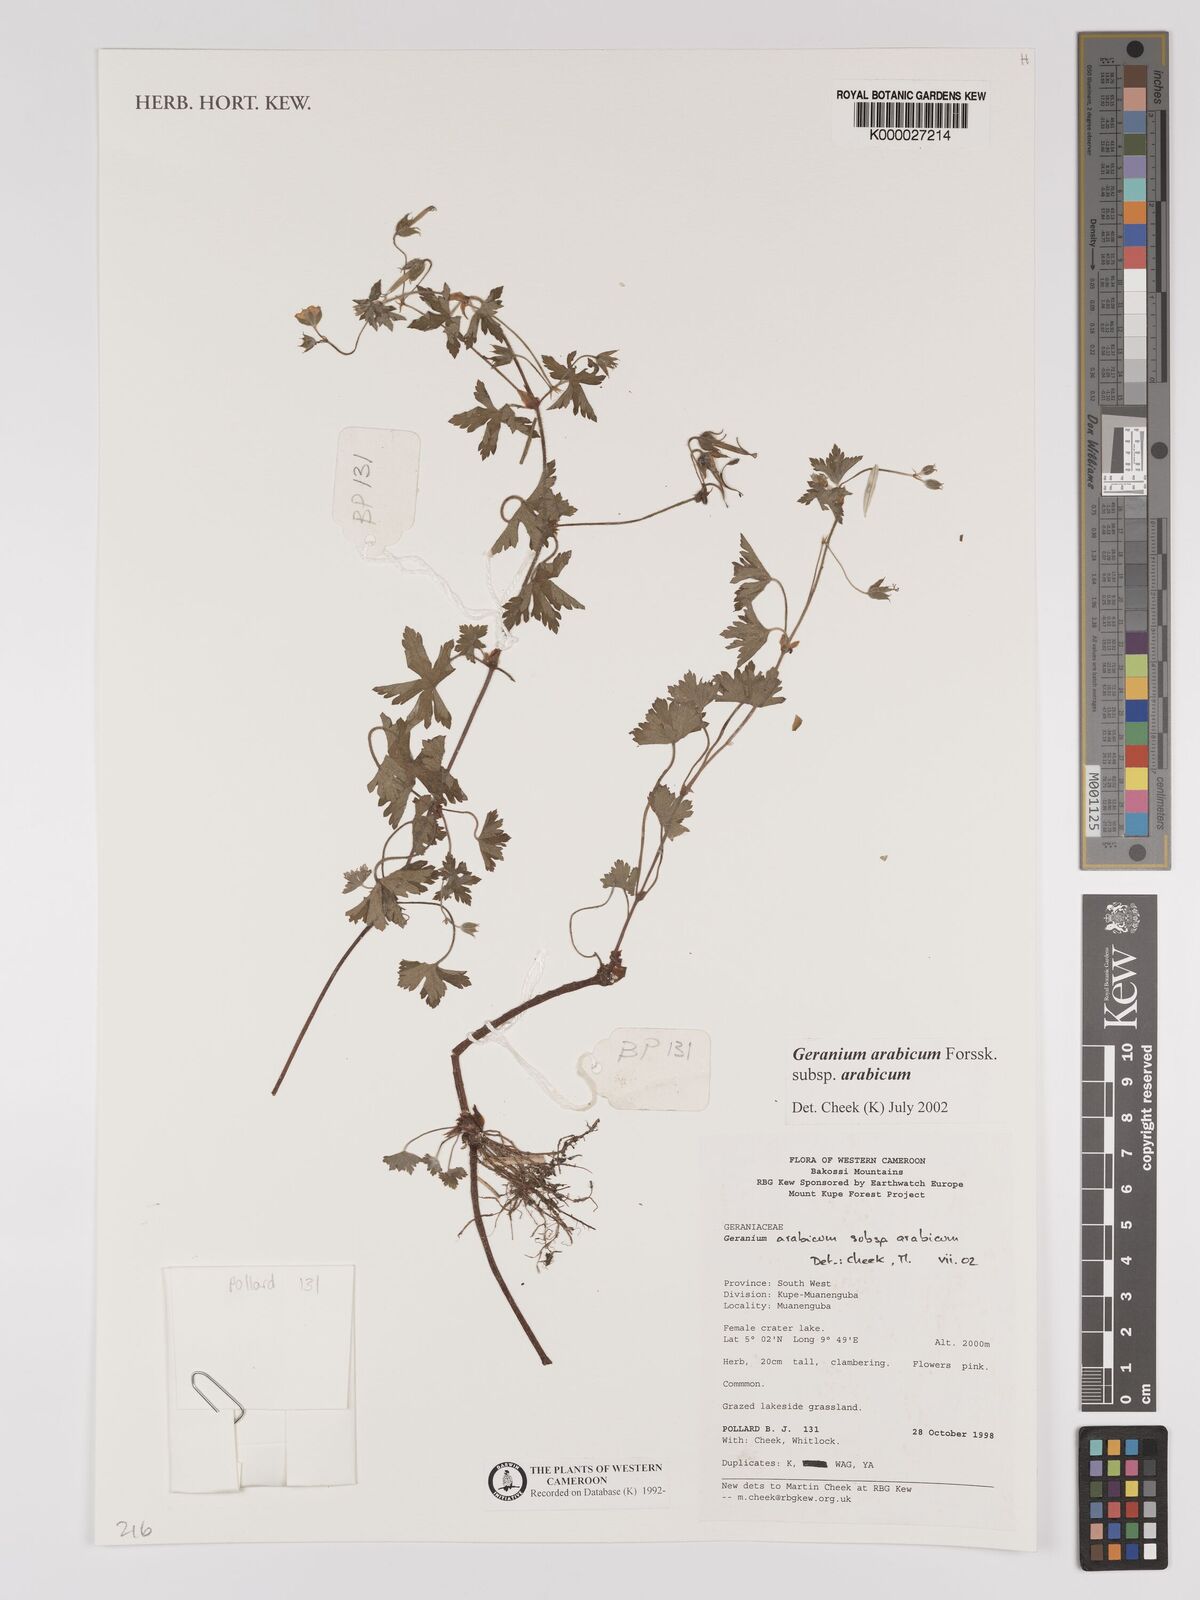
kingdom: Plantae
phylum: Tracheophyta
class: Magnoliopsida
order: Geraniales
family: Geraniaceae
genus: Geranium
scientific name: Geranium arabicum
